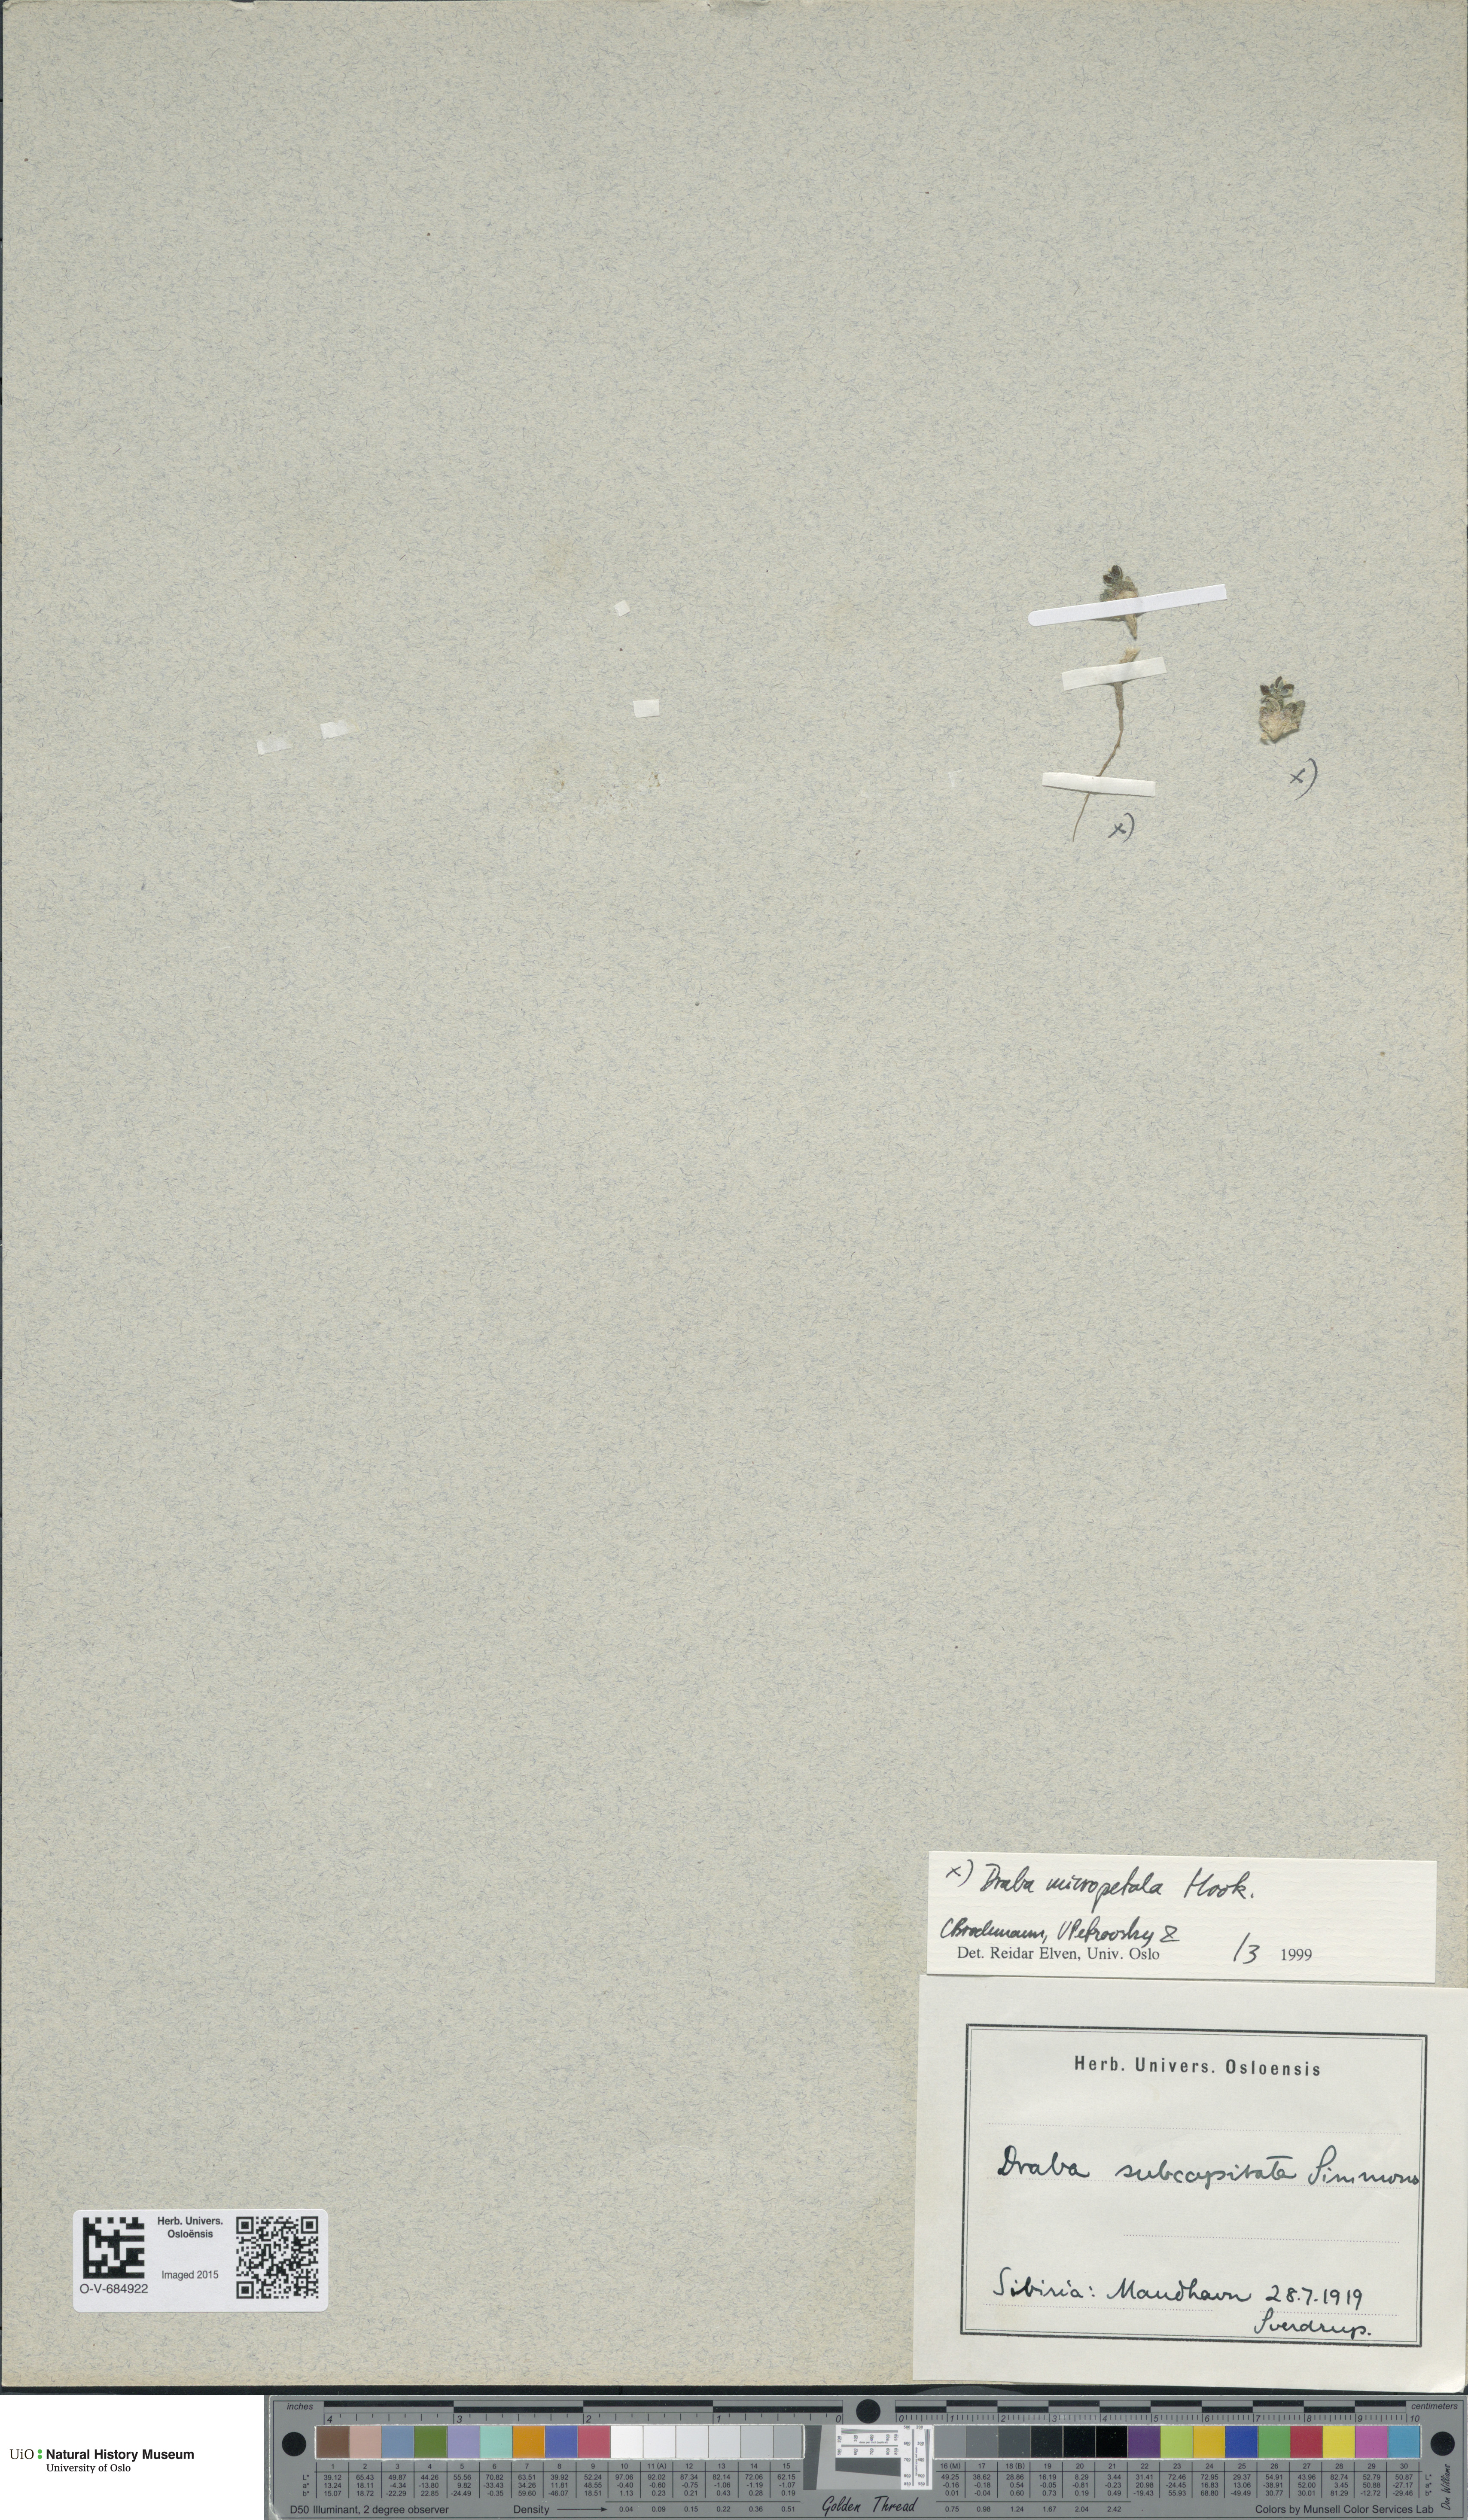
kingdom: Plantae
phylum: Tracheophyta
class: Magnoliopsida
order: Brassicales
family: Brassicaceae
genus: Draba
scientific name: Draba micropetala
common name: Small-flowered draba
